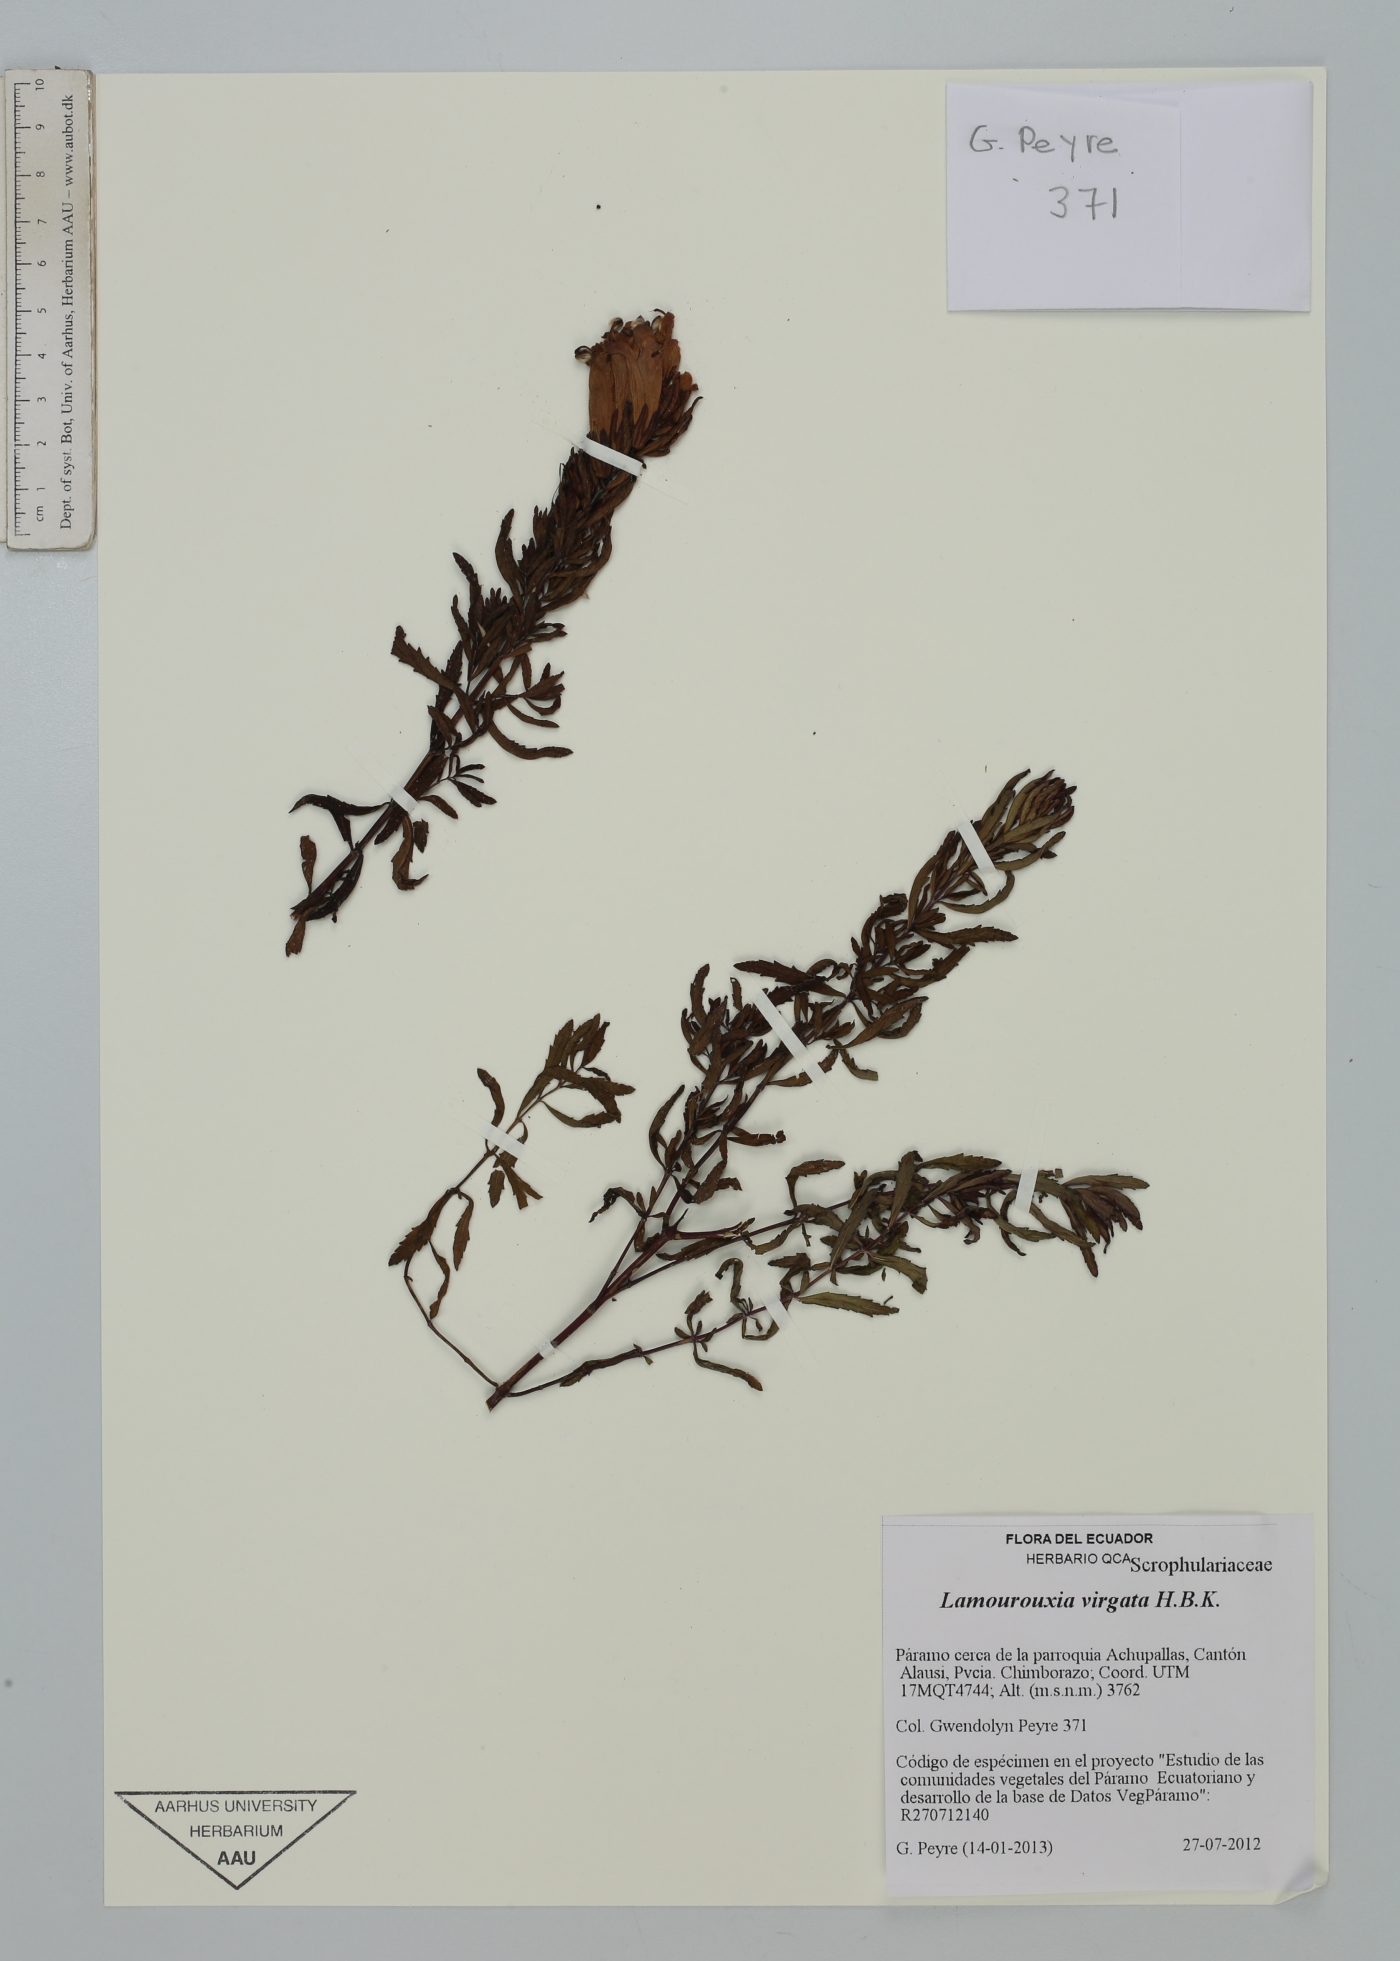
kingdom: Plantae
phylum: Tracheophyta
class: Magnoliopsida
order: Lamiales
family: Orobanchaceae
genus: Lamourouxia
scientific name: Lamourouxia virgata
